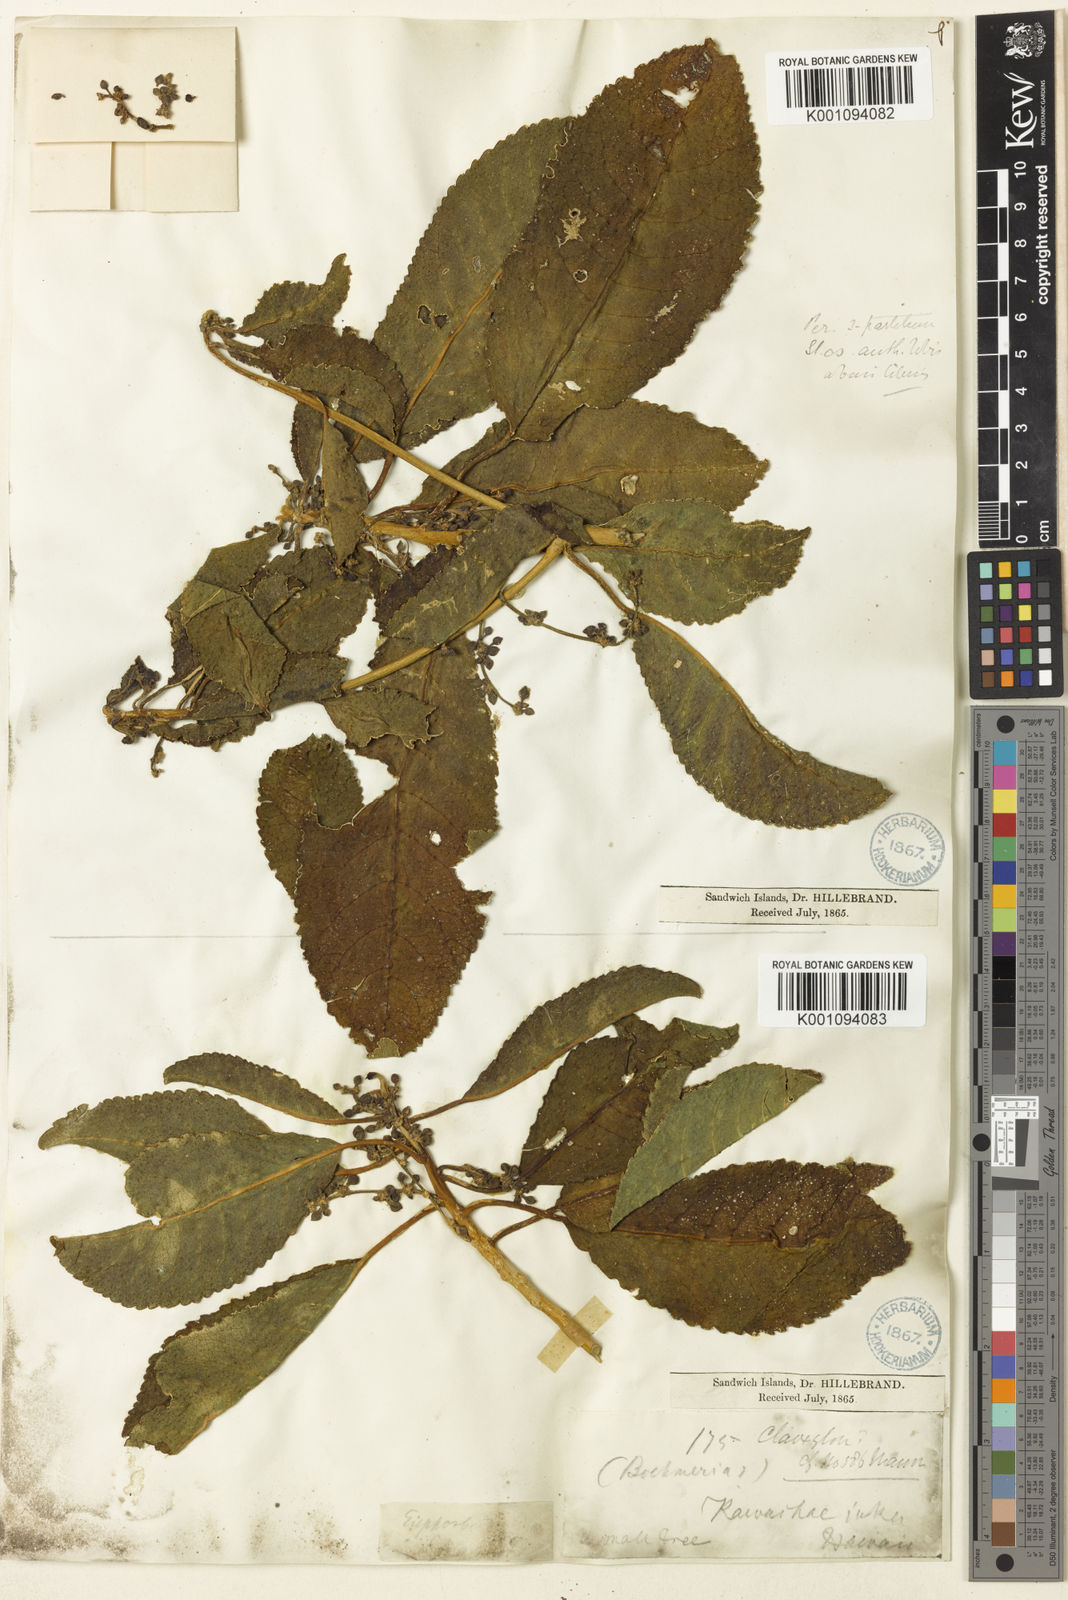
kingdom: Plantae
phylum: Tracheophyta
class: Magnoliopsida
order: Malpighiales
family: Euphorbiaceae
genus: Claoxylon
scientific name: Claoxylon
